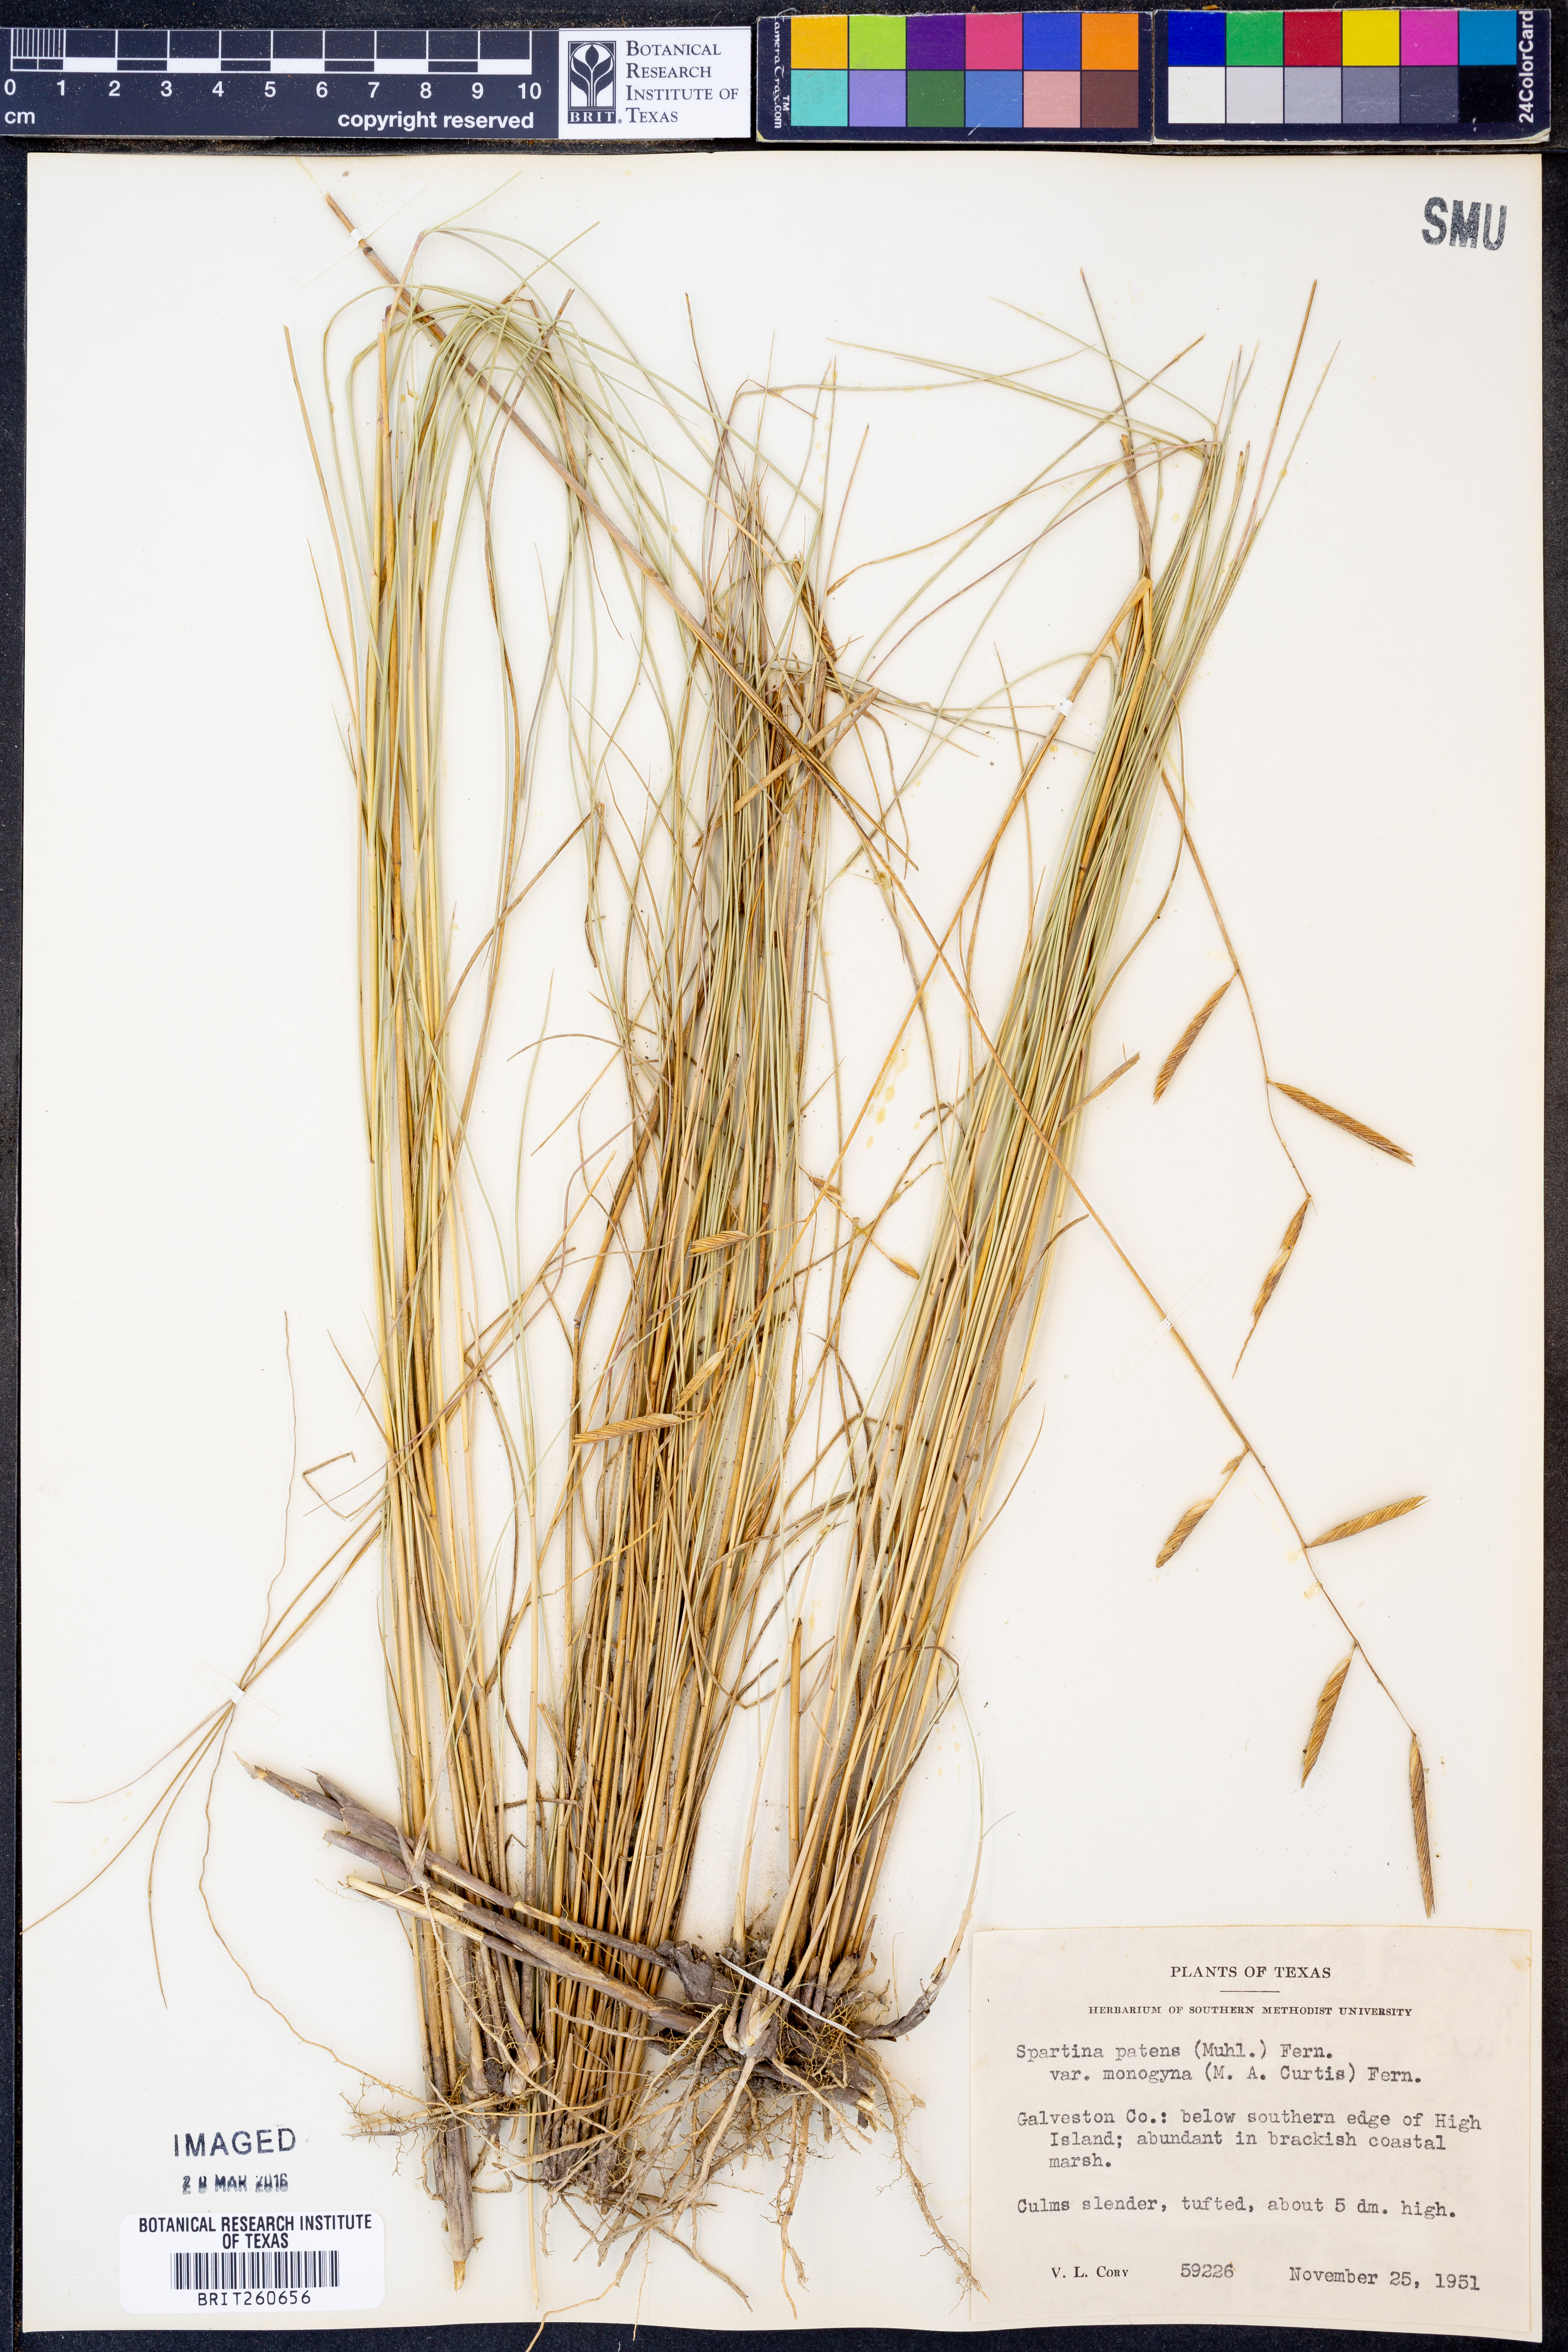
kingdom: Plantae
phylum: Tracheophyta
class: Liliopsida
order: Poales
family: Poaceae
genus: Sporobolus
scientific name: Sporobolus pumilus
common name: Highwater grass
